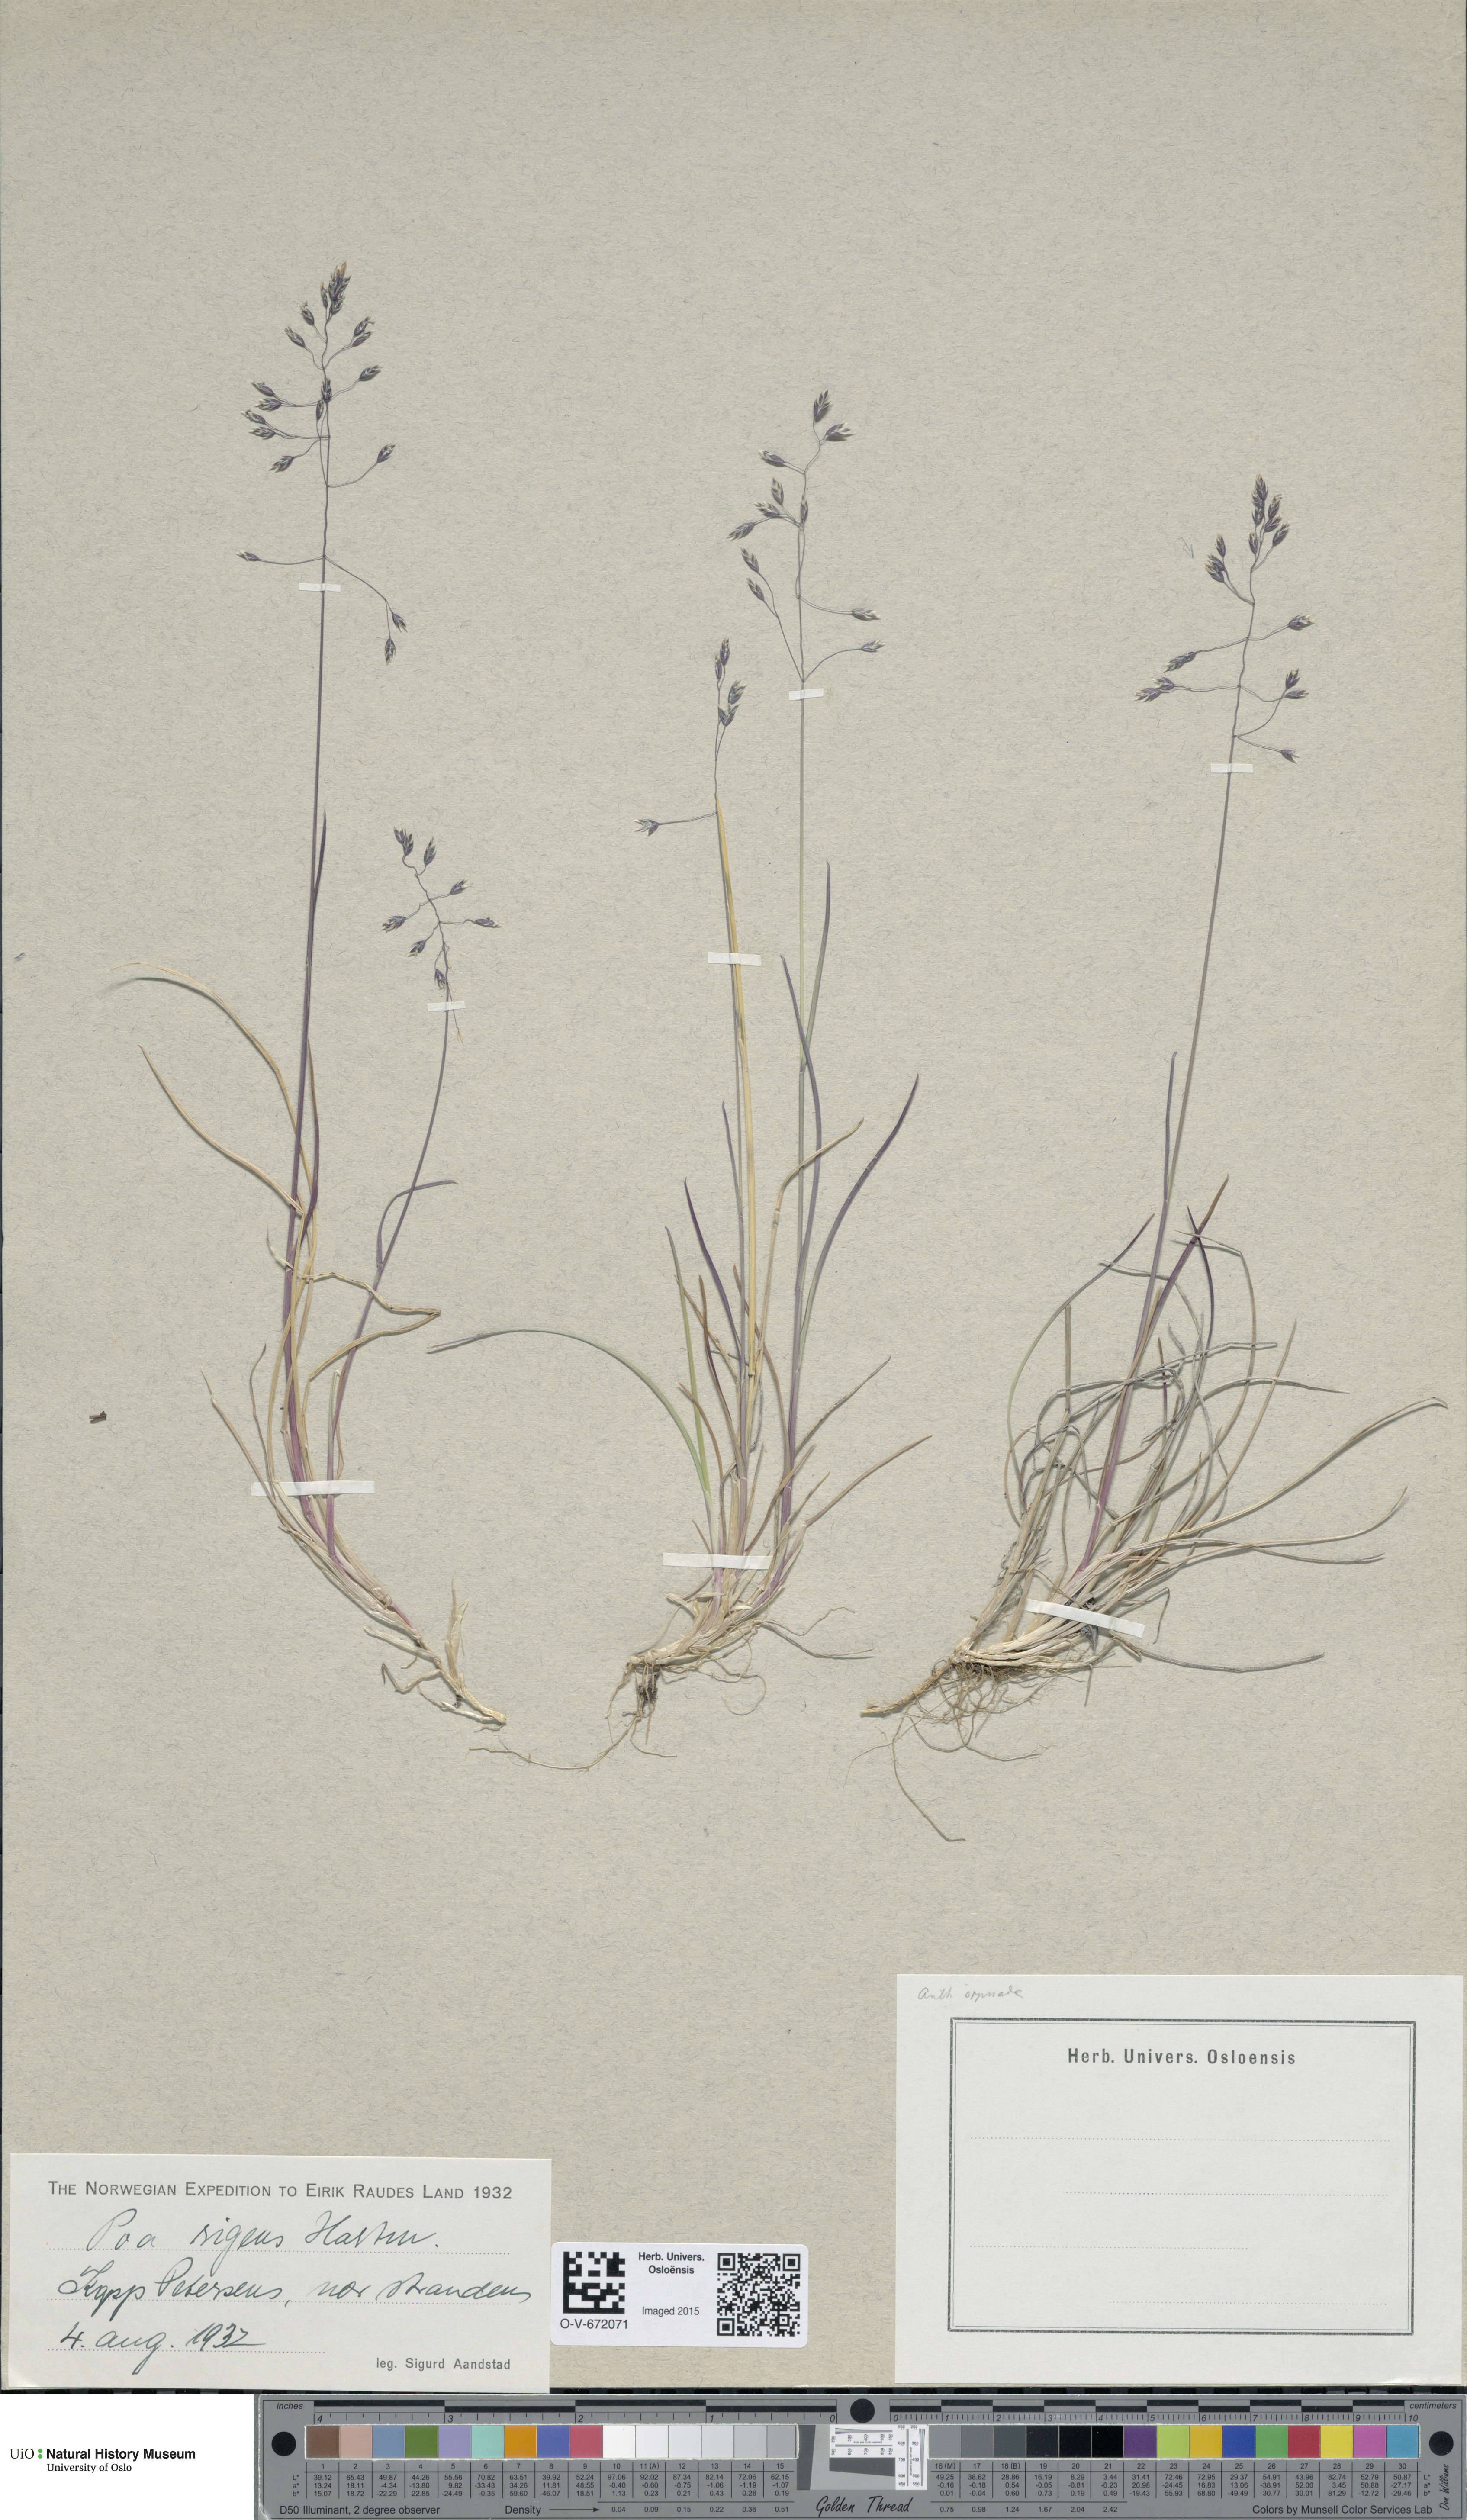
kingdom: Plantae
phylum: Tracheophyta
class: Liliopsida
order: Poales
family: Poaceae
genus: Poa
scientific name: Poa arctica
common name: Arctic bluegrass
